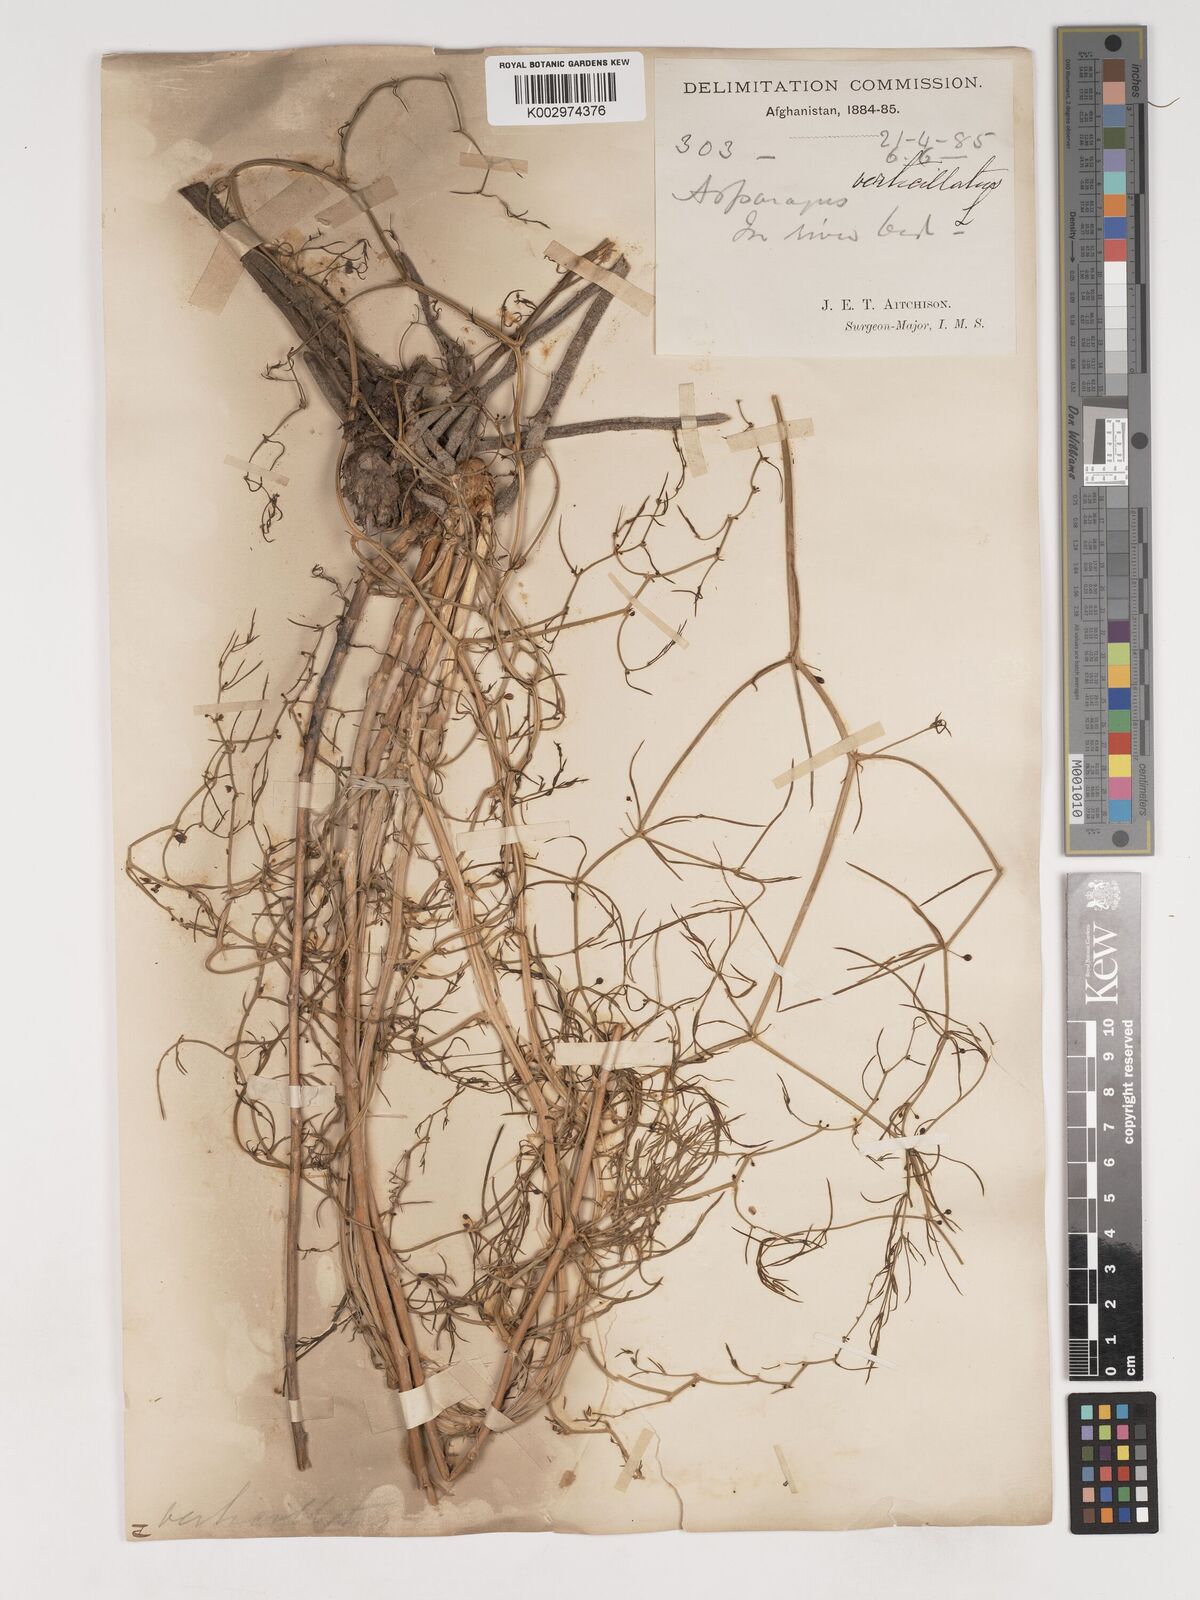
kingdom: Plantae
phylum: Tracheophyta
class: Liliopsida
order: Asparagales
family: Asparagaceae
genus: Asparagus
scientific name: Asparagus verticillatus
